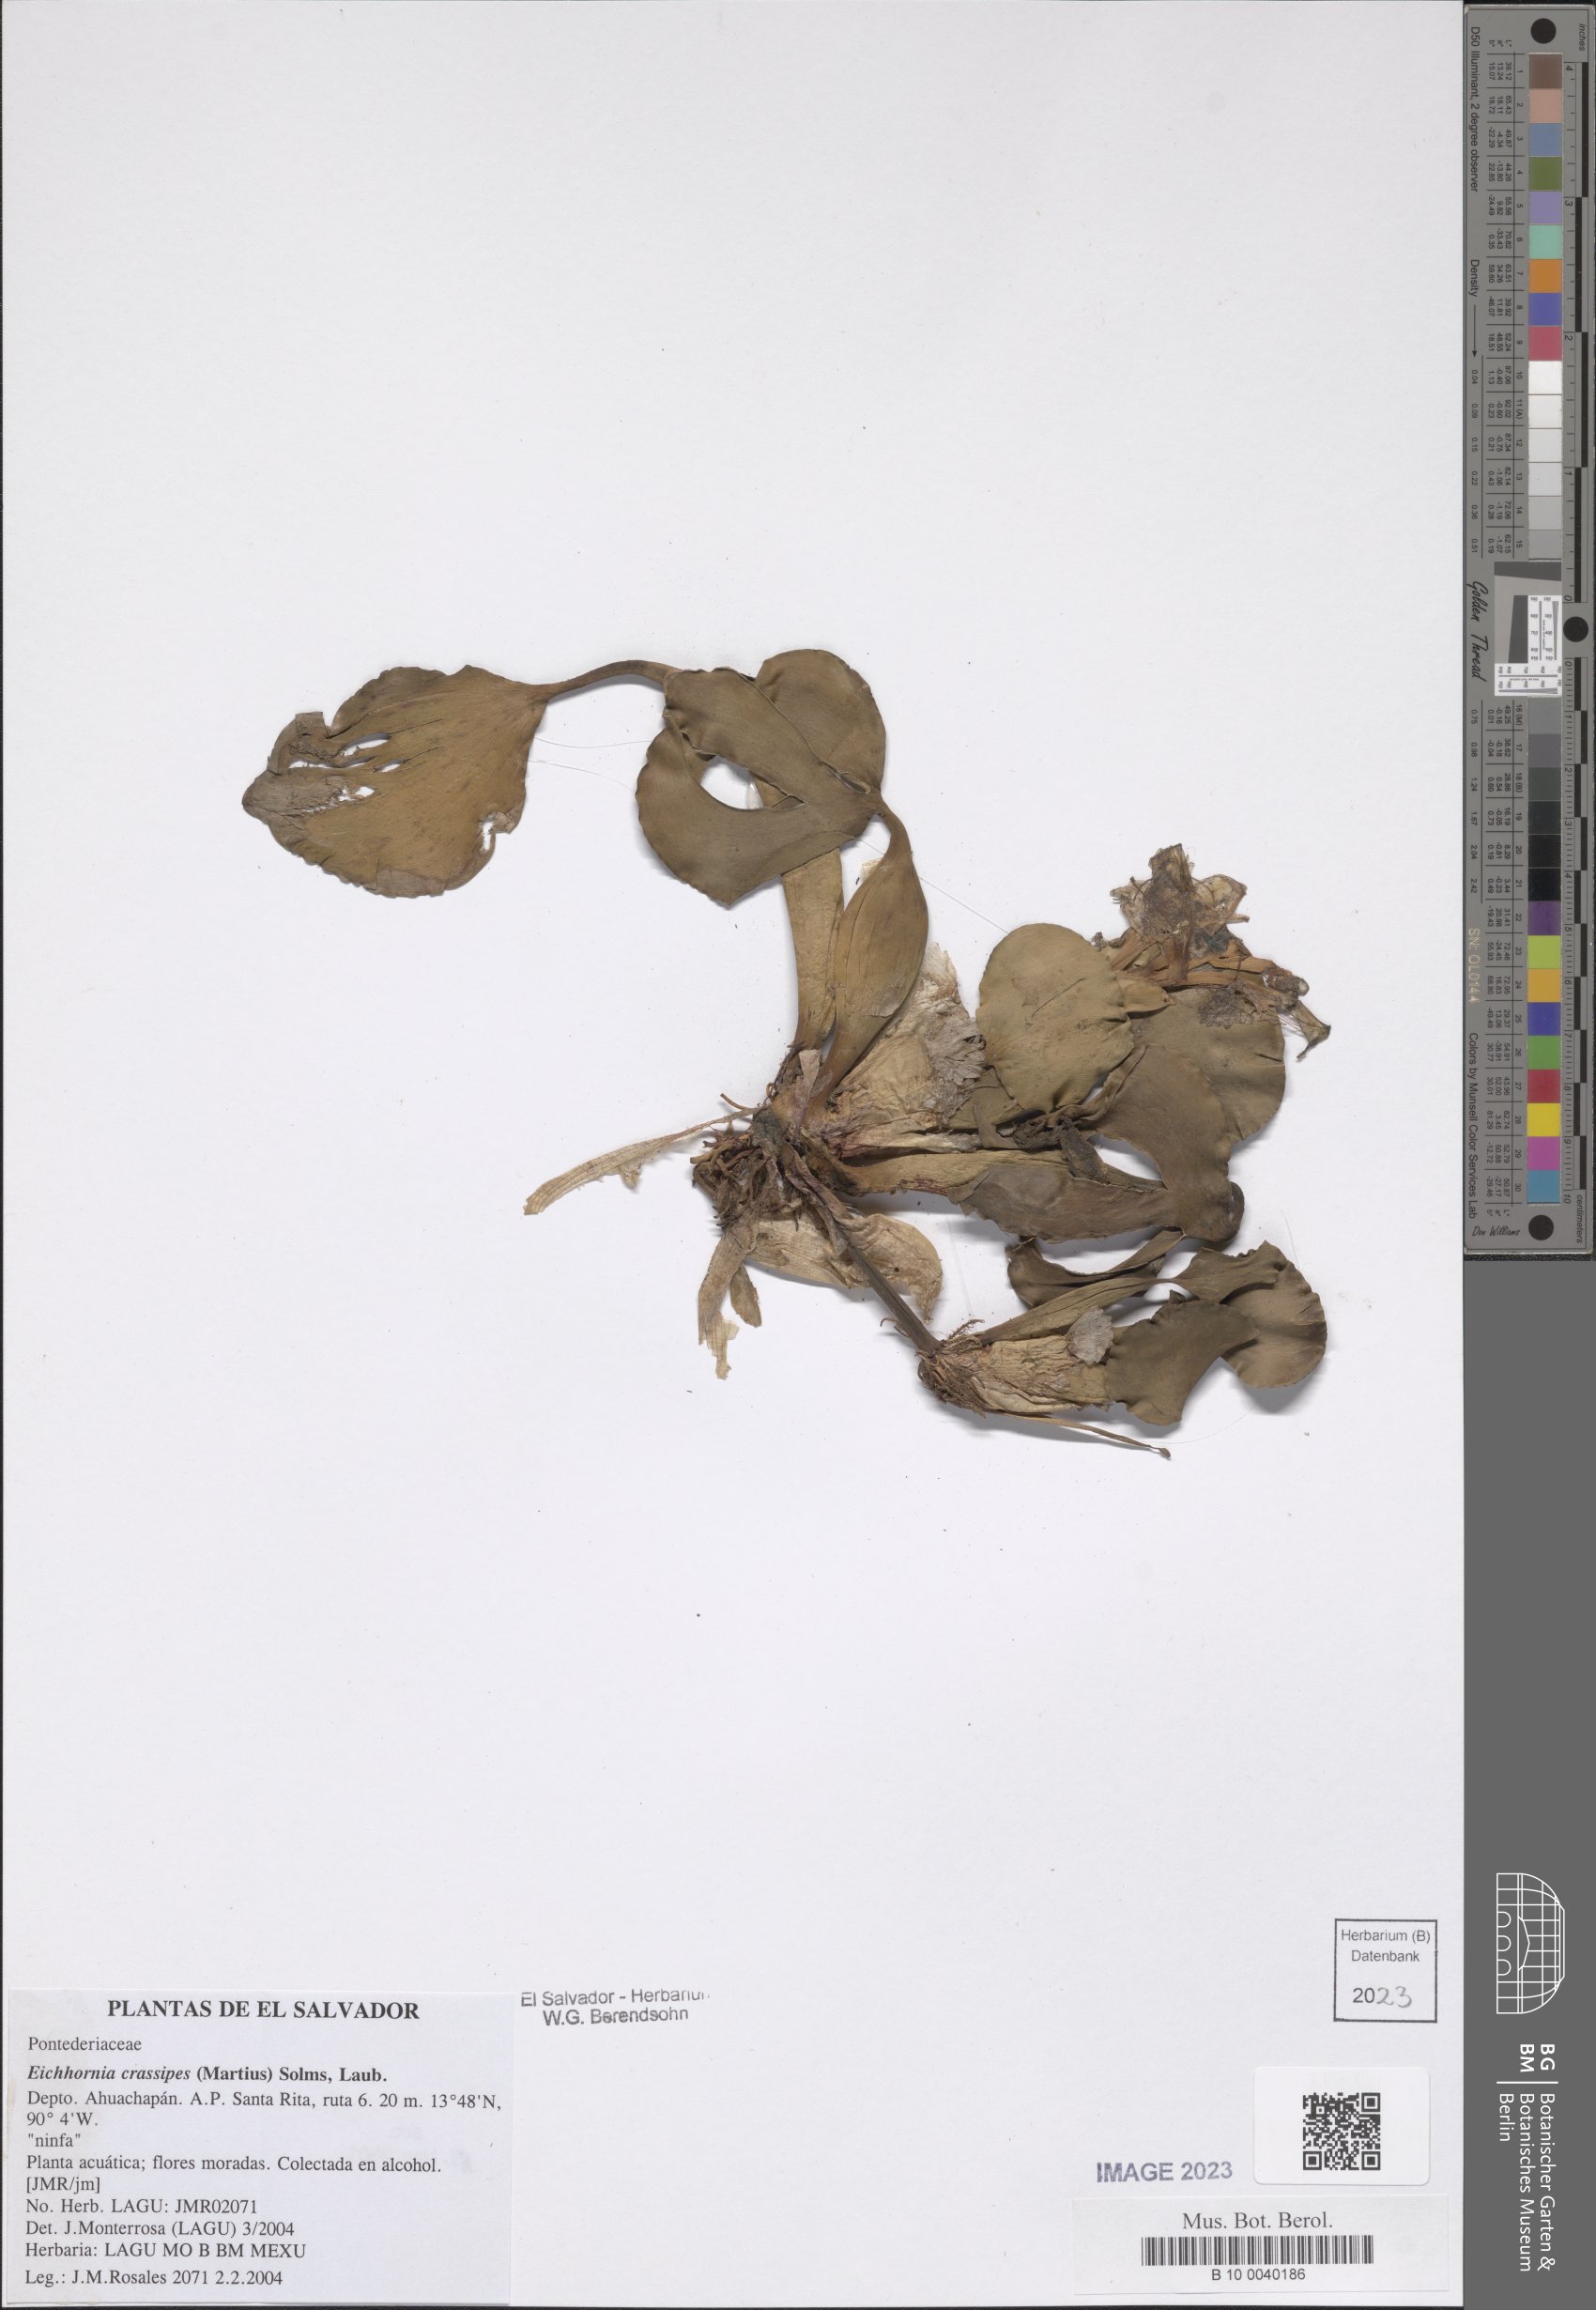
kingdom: Plantae
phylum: Tracheophyta
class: Liliopsida
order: Commelinales
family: Pontederiaceae
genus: Pontederia
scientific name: Pontederia crassipes
